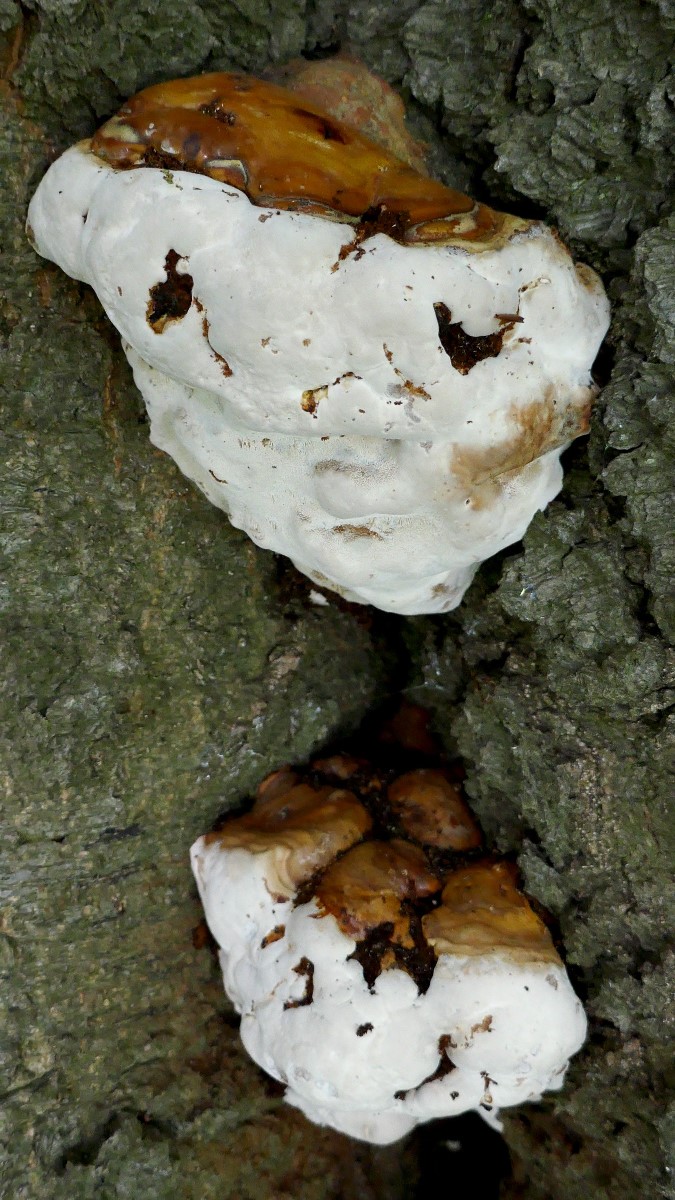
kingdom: Fungi
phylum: Basidiomycota
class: Agaricomycetes
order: Polyporales
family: Polyporaceae
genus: Ganoderma
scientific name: Ganoderma pfeifferi
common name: kobberrød lakporesvamp
